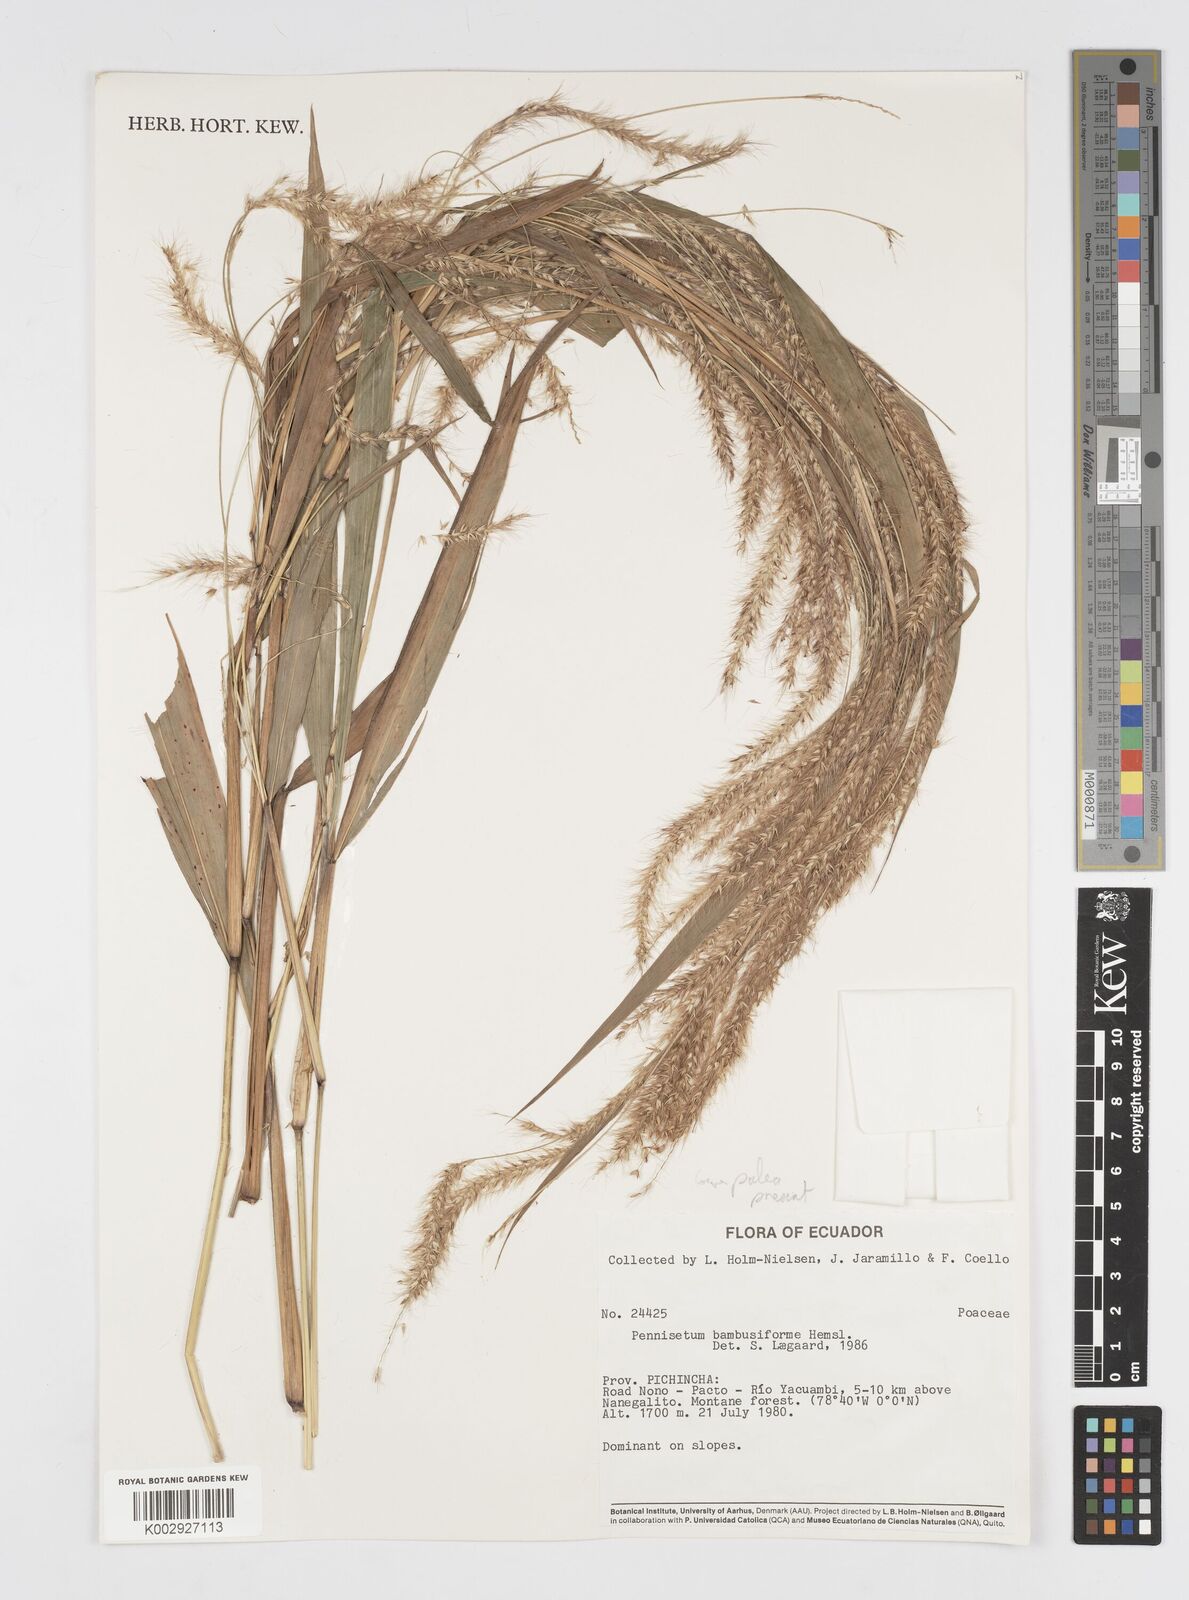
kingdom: Plantae
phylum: Tracheophyta
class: Liliopsida
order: Poales
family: Poaceae
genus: Cenchrus
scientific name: Cenchrus tristachyus
